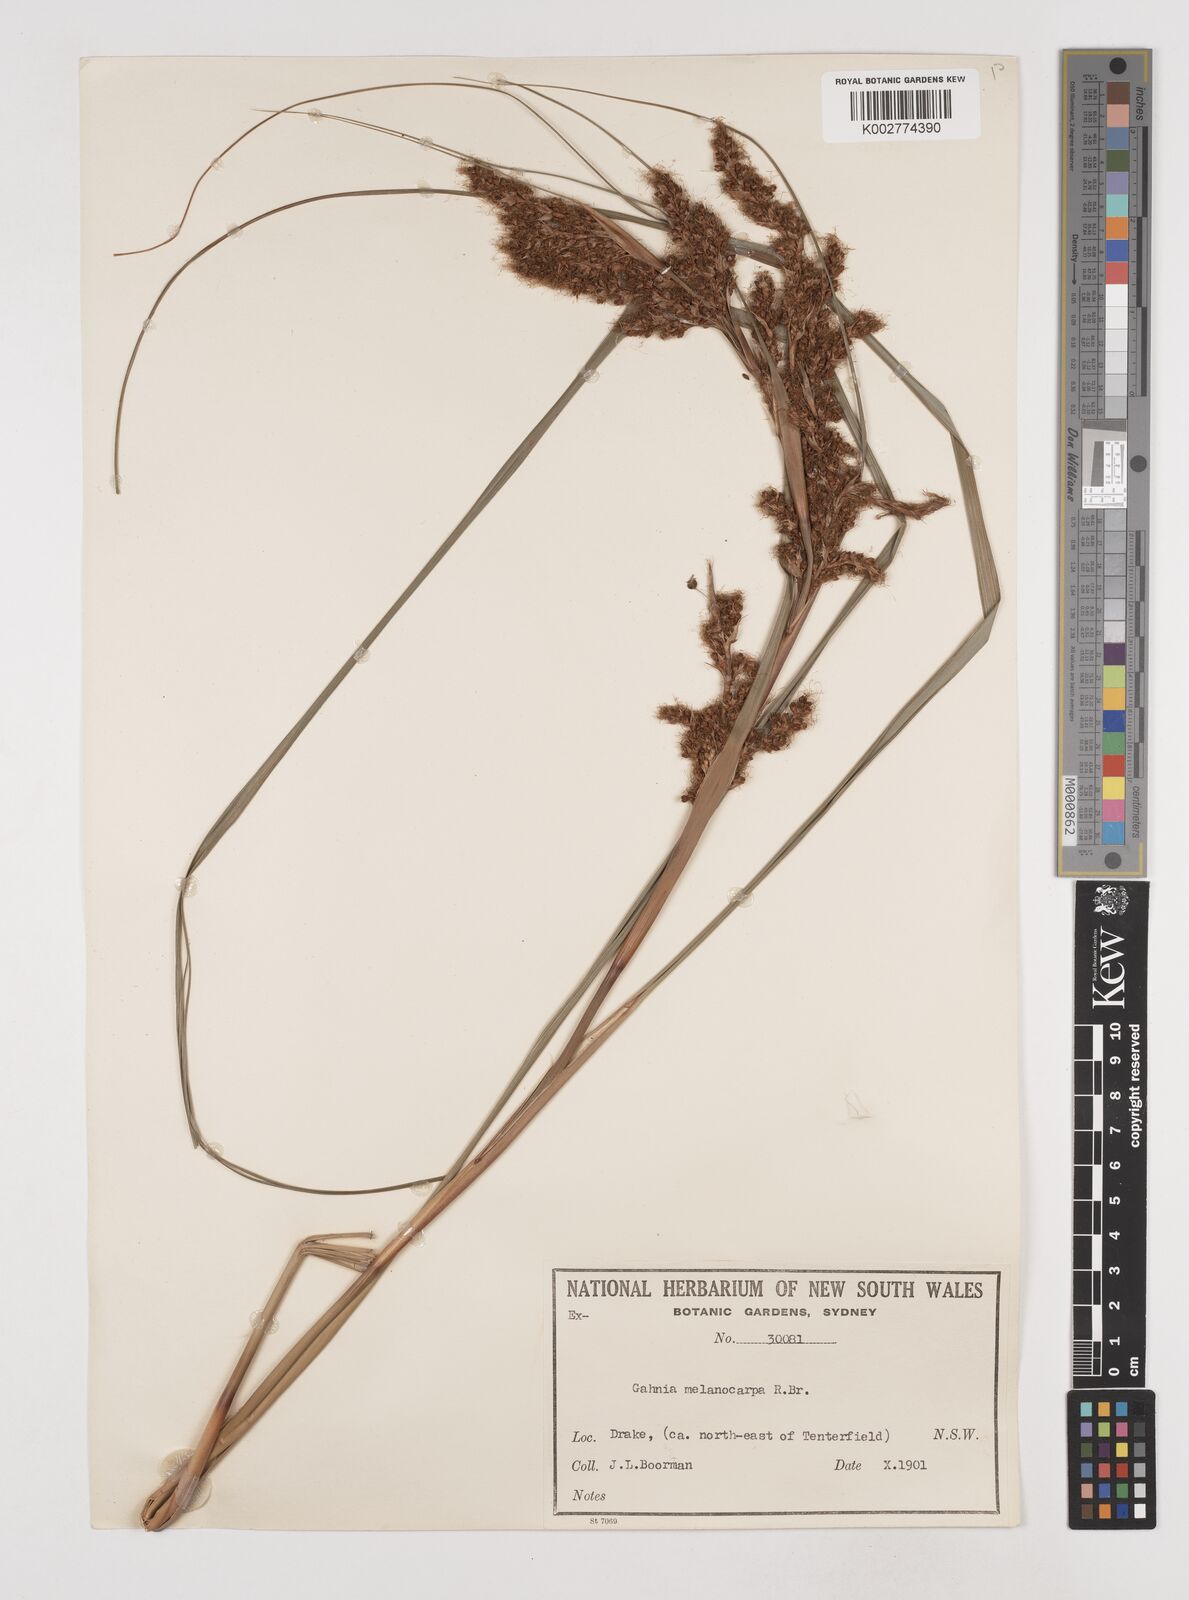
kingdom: Plantae
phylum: Tracheophyta
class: Liliopsida
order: Poales
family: Cyperaceae
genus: Gahnia
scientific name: Gahnia melanocarpa
